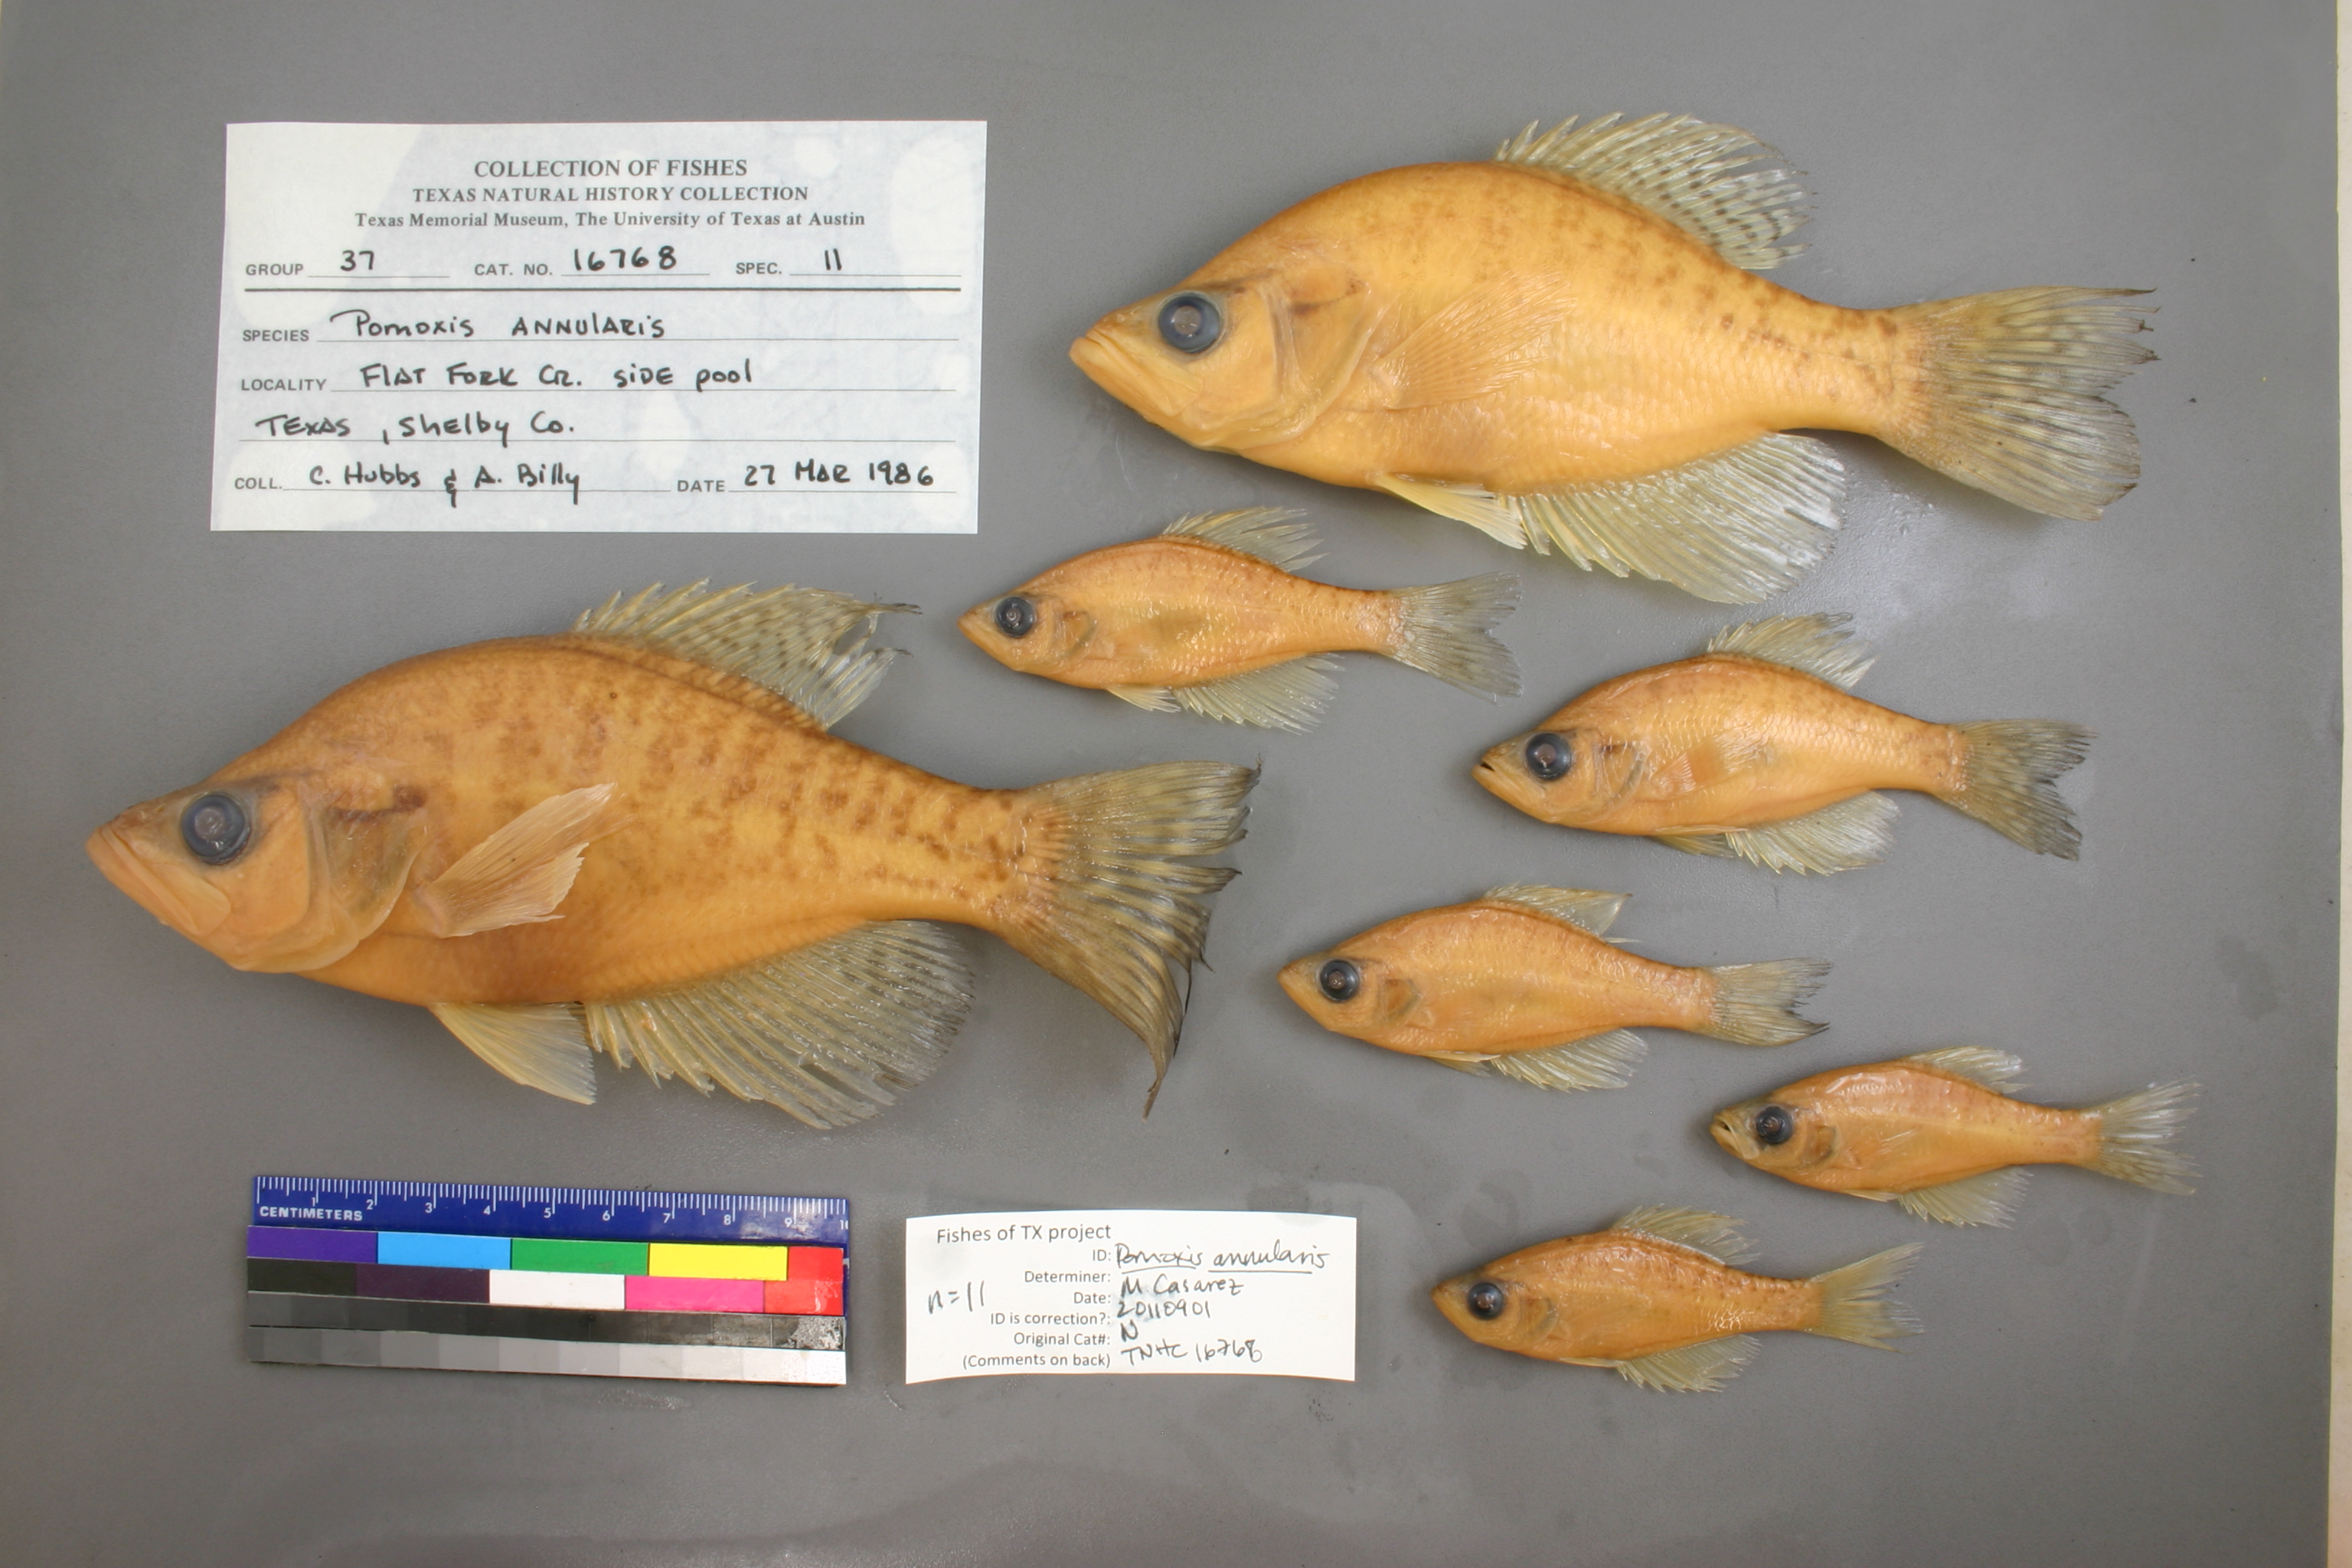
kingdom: Animalia
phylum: Chordata
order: Perciformes
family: Centrarchidae
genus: Pomoxis
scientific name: Pomoxis annularis
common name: White crappie
